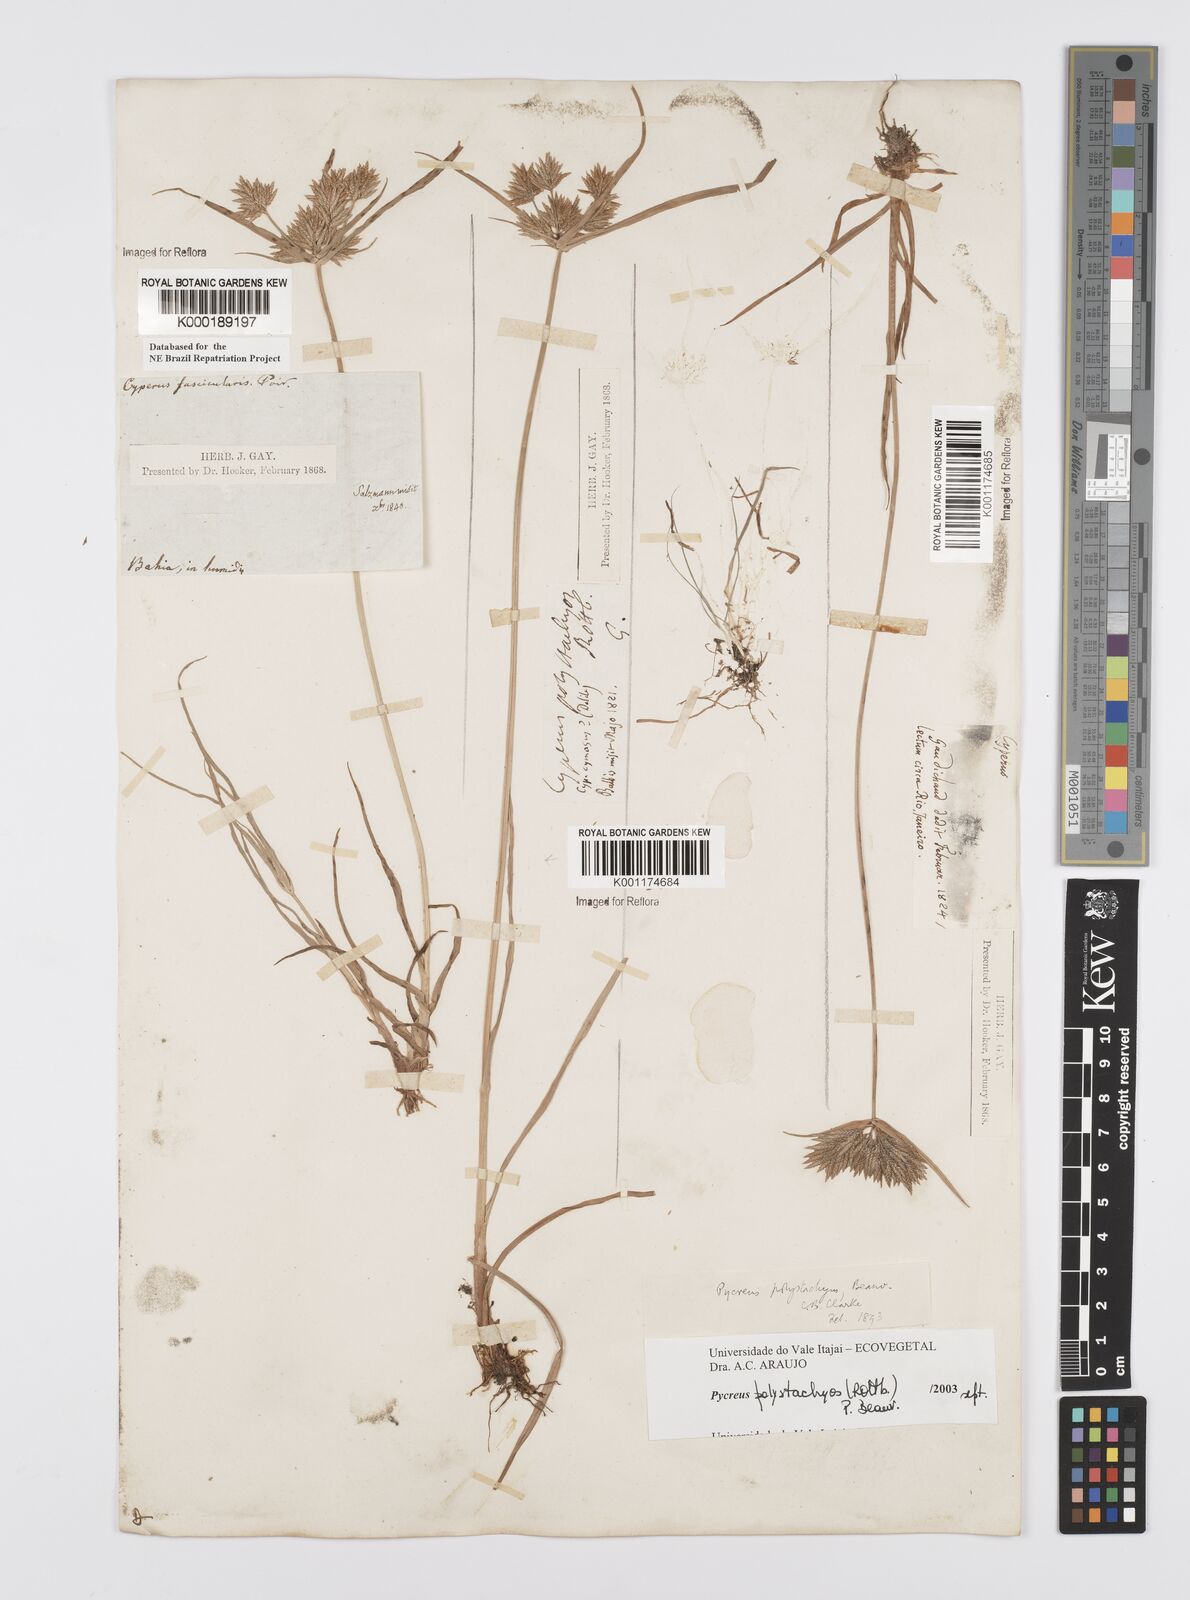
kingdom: Plantae
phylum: Tracheophyta
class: Liliopsida
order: Poales
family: Cyperaceae
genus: Cyperus
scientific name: Cyperus polystachyos
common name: Bunchy flat sedge
